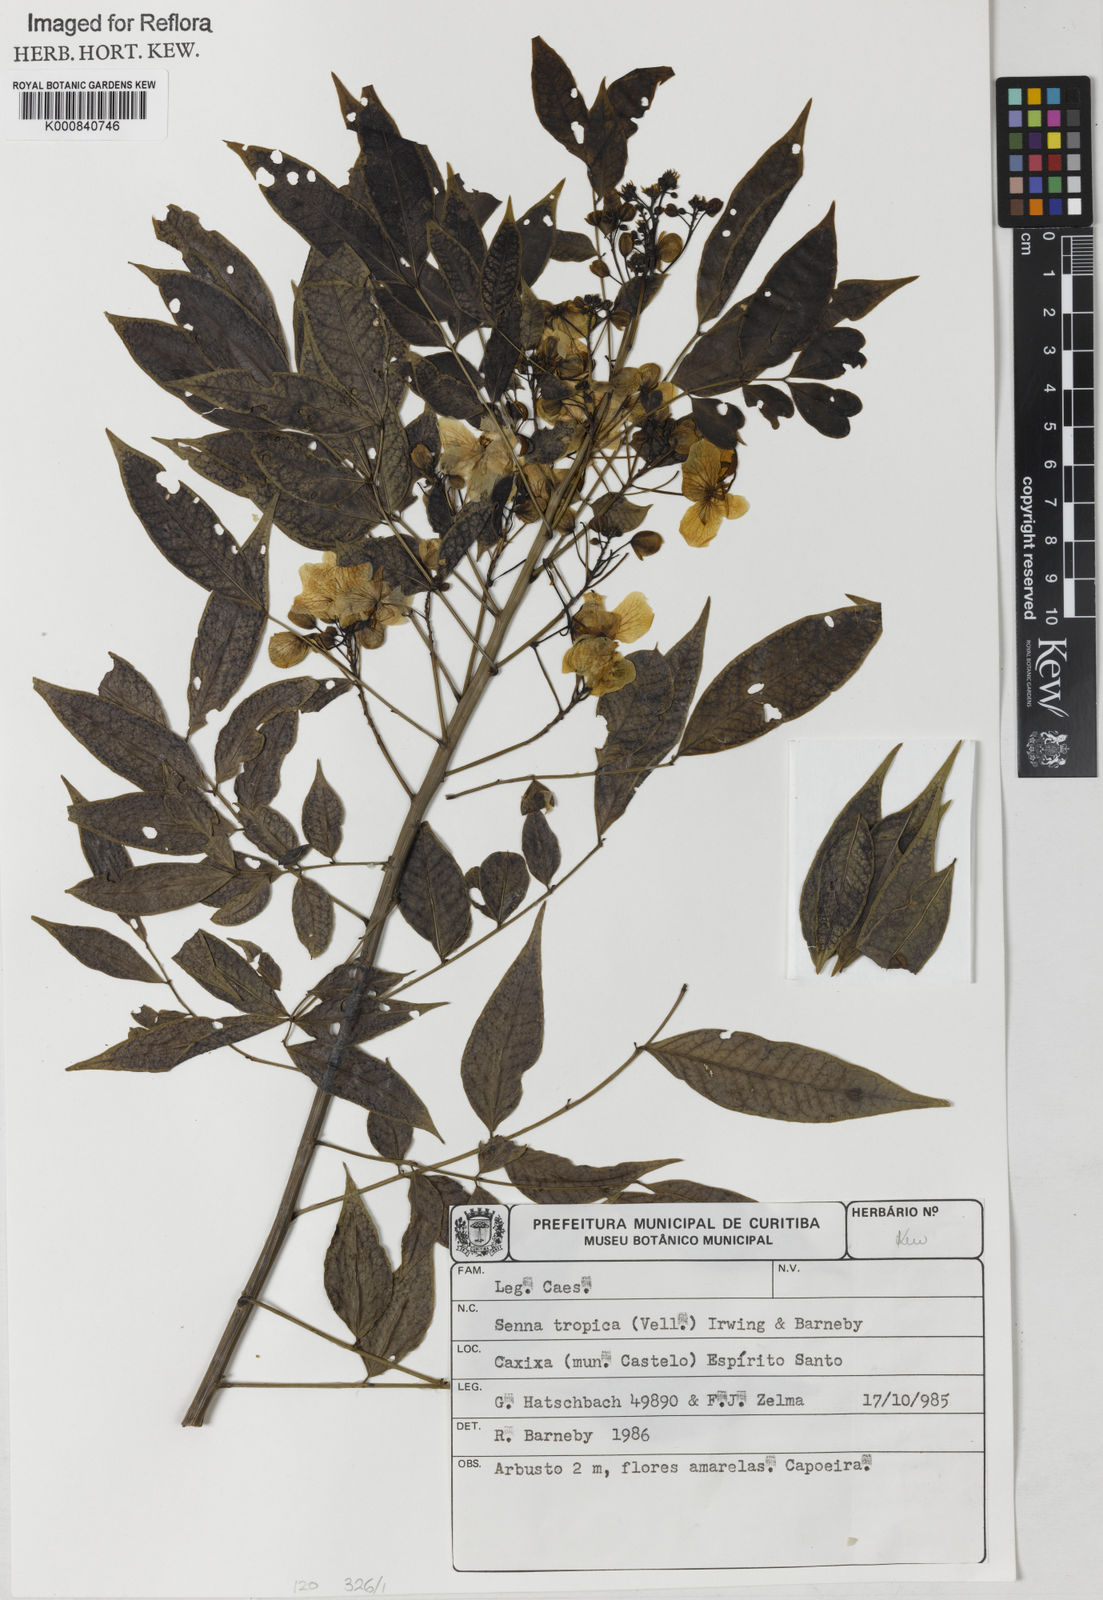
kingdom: Plantae
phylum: Tracheophyta
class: Magnoliopsida
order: Fabales
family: Fabaceae
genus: Senna
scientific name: Senna tropica
